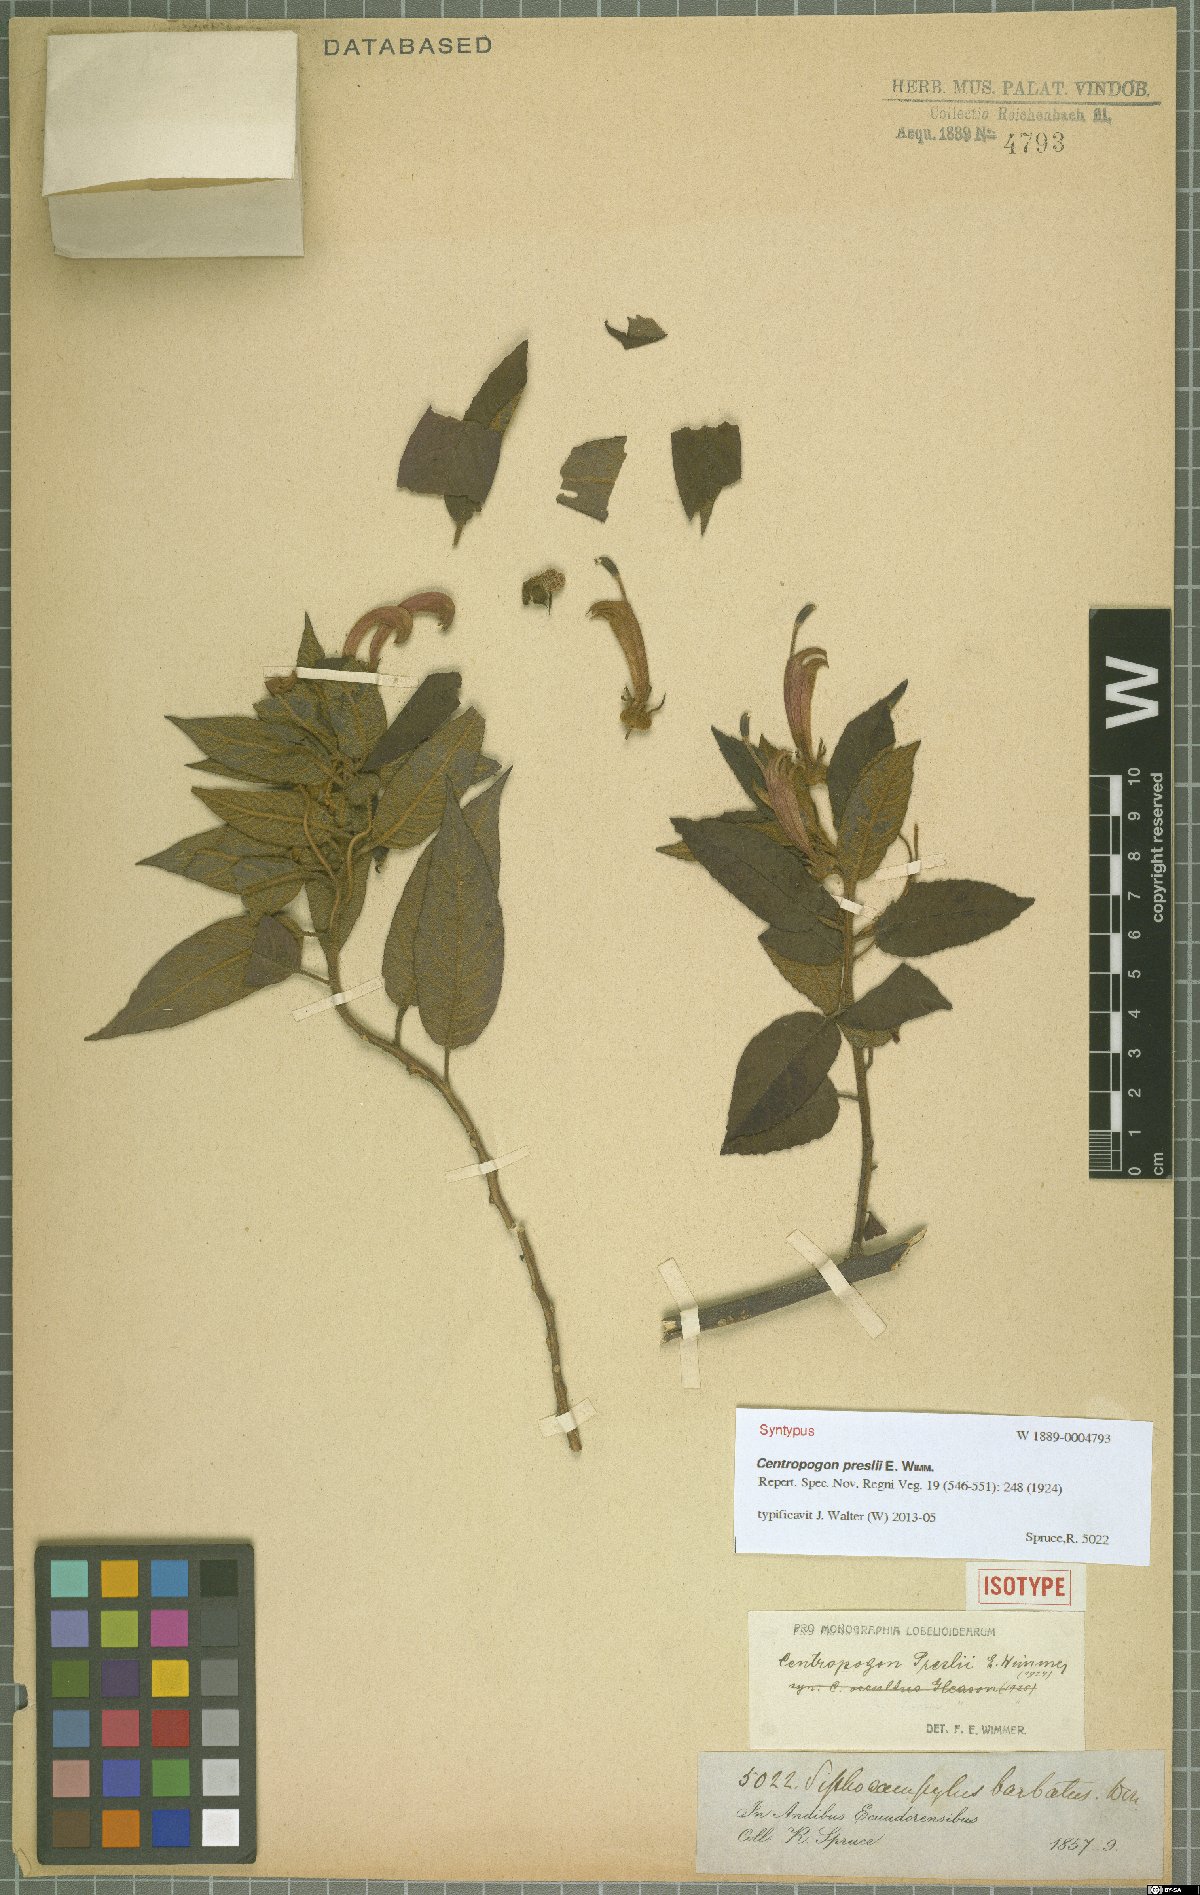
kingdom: Plantae
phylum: Tracheophyta
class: Magnoliopsida
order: Asterales
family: Campanulaceae
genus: Centropogon
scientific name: Centropogon preslii
